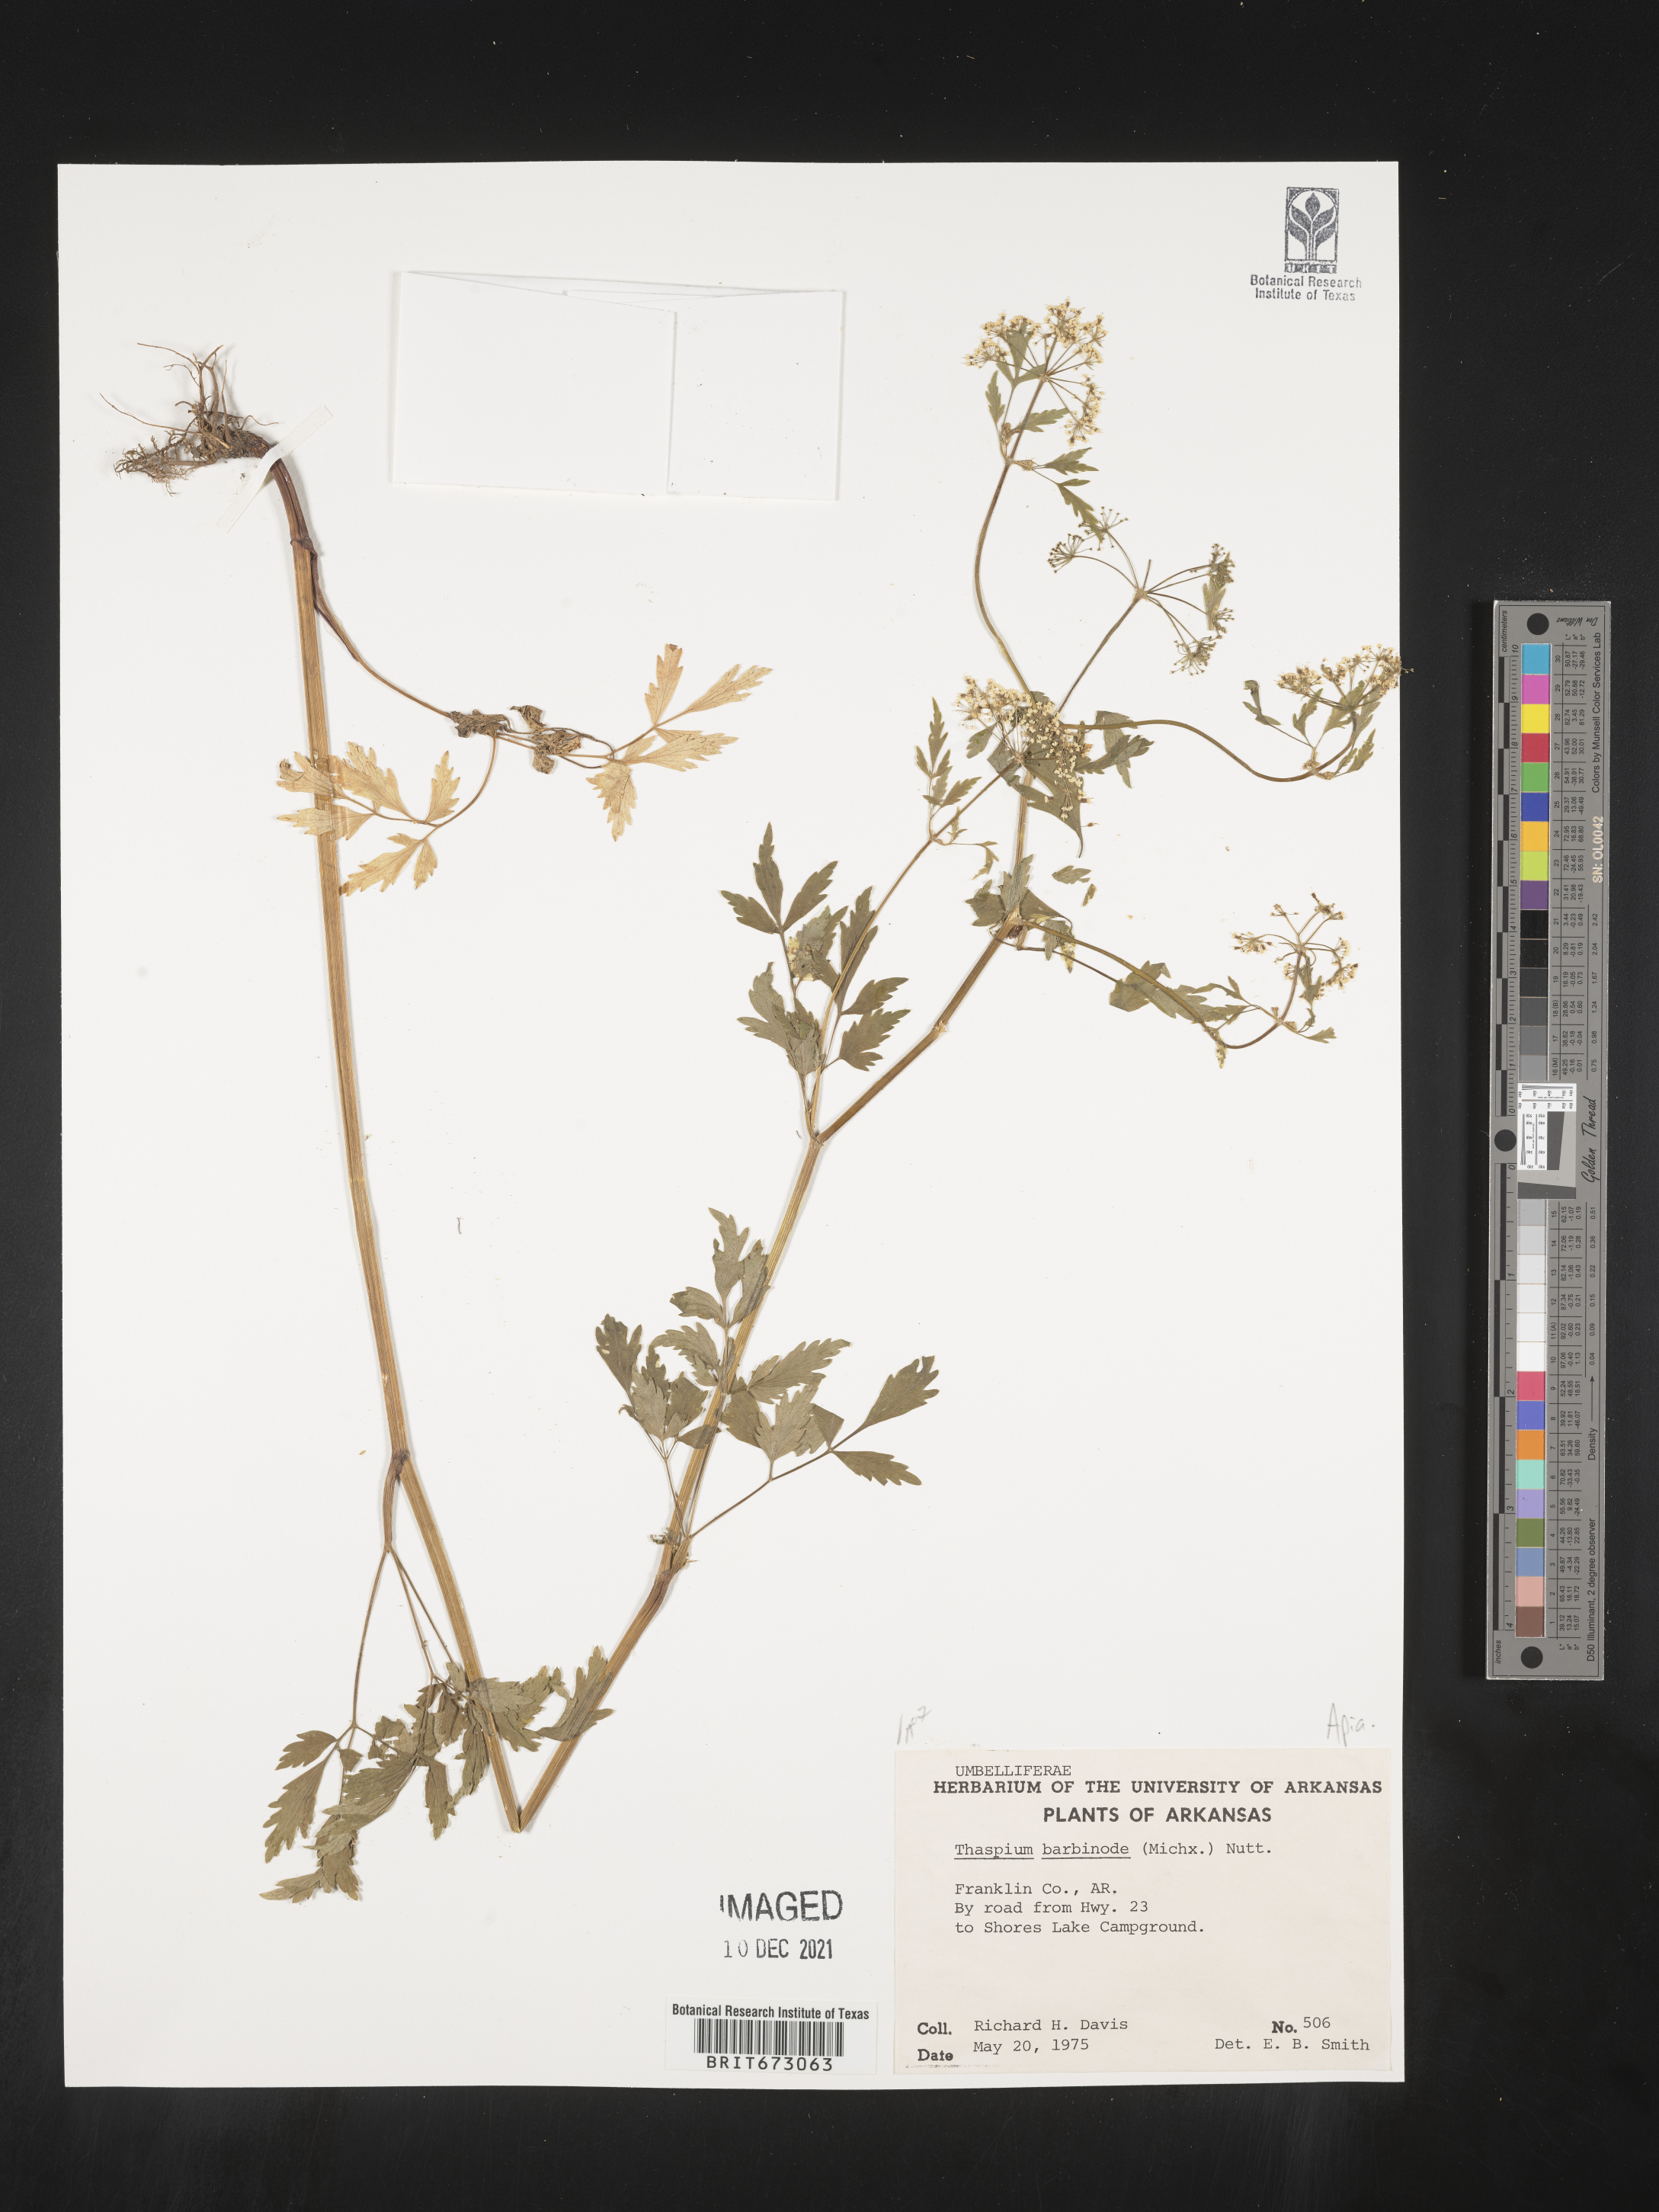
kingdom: Plantae
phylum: Tracheophyta
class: Magnoliopsida
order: Apiales
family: Apiaceae
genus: Thaspium
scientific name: Thaspium barbinode
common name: Bearded meadow-parsnip
